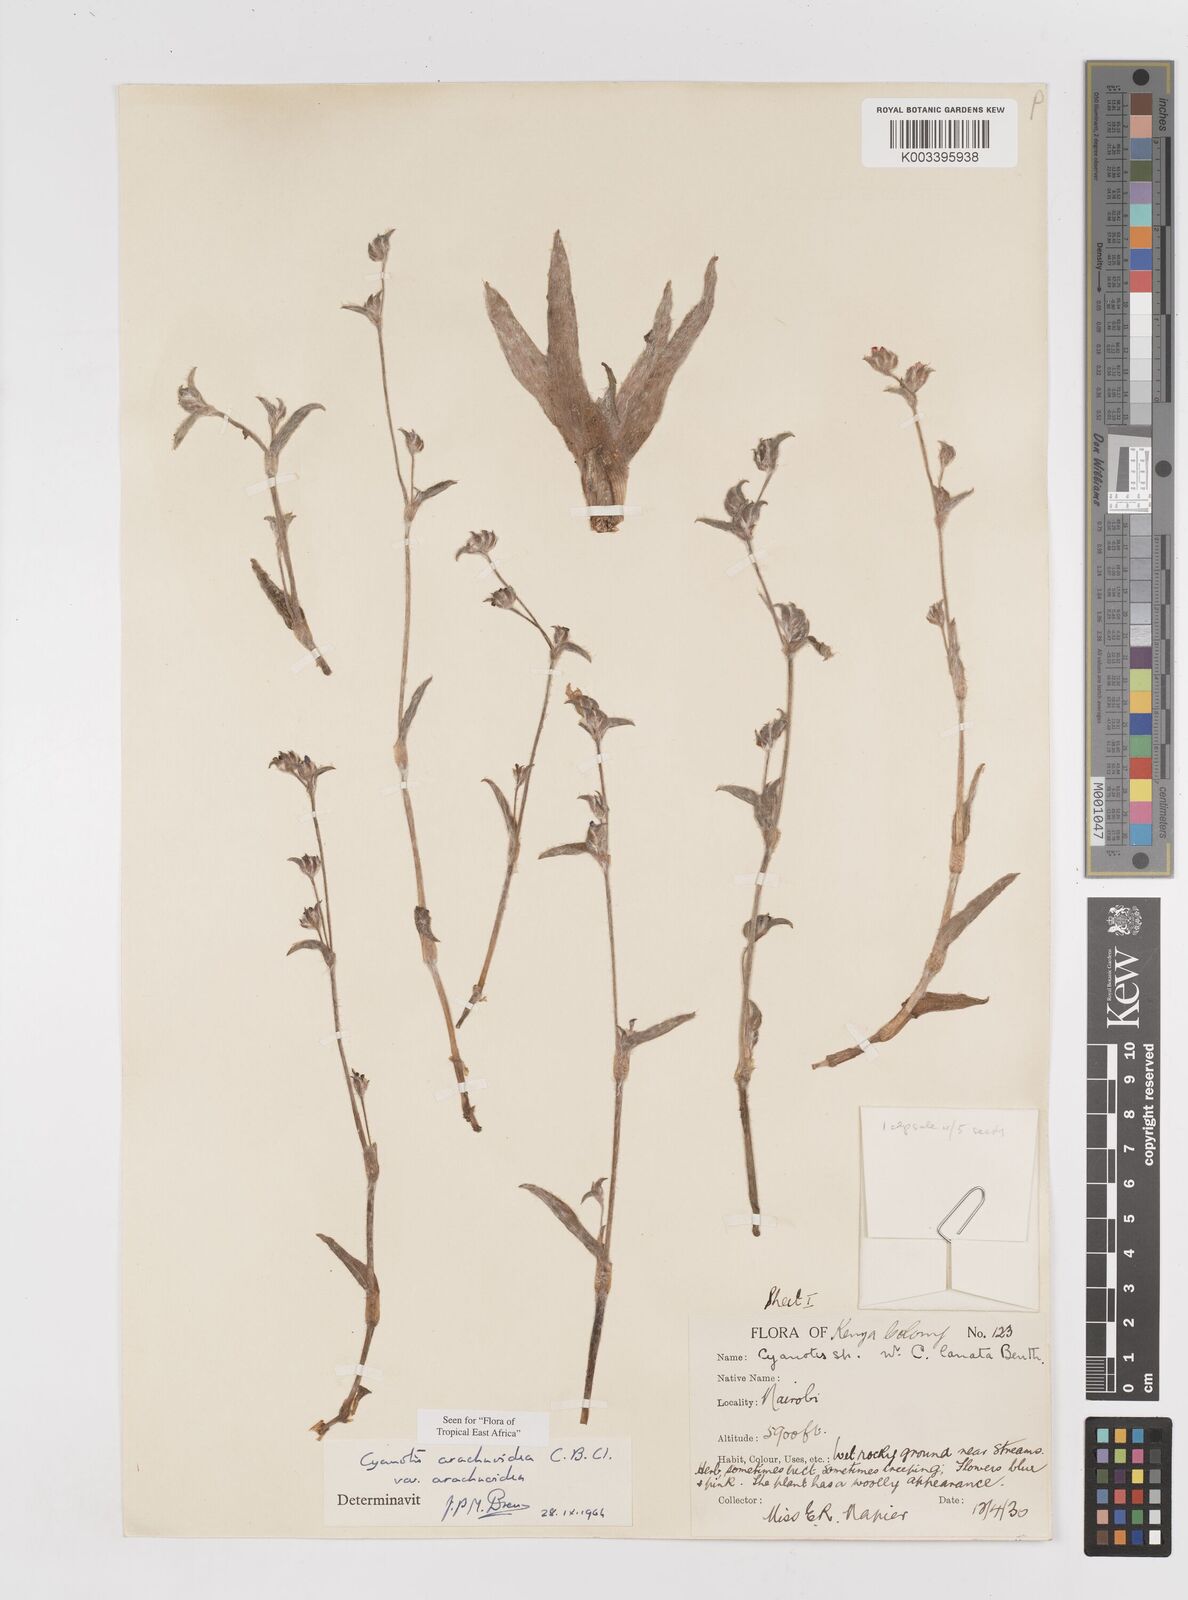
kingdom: Plantae
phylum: Tracheophyta
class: Liliopsida
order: Commelinales
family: Commelinaceae
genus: Cyanotis
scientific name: Cyanotis arachnoidea
